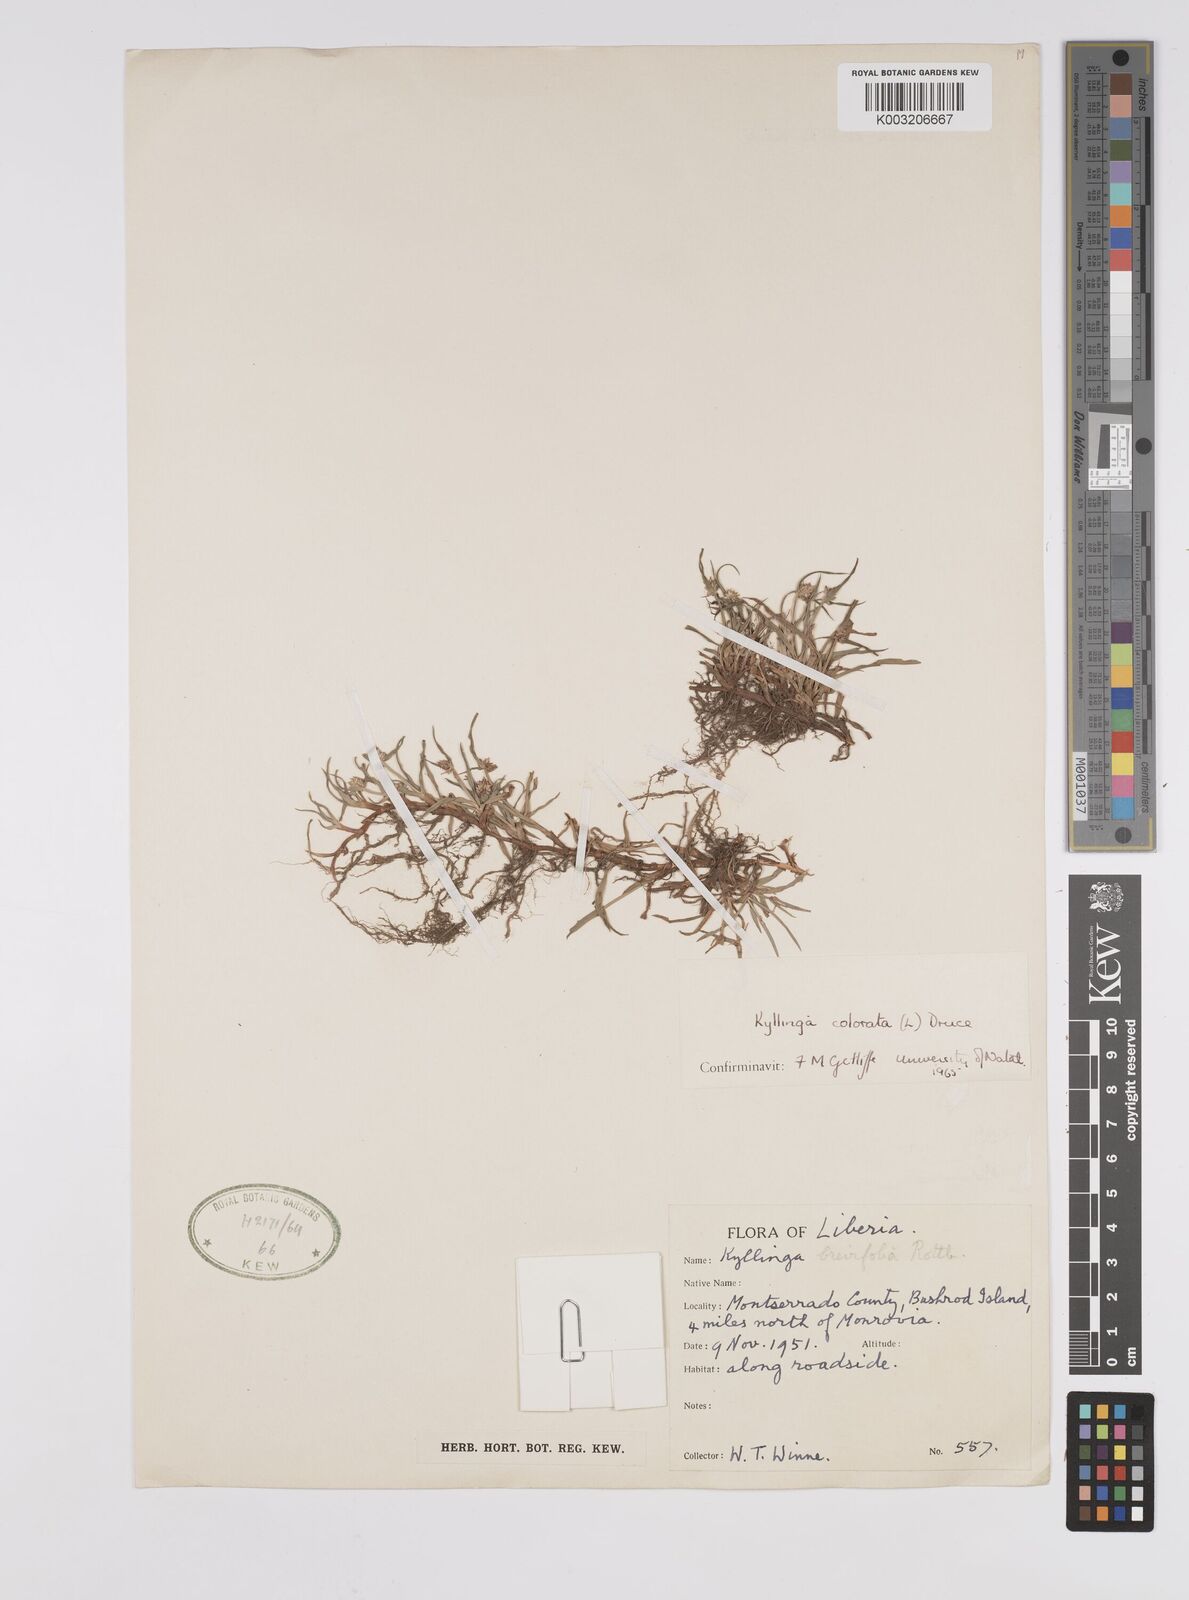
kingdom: Plantae
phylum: Tracheophyta
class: Liliopsida
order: Poales
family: Cyperaceae
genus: Cyperus
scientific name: Cyperus brevifolius
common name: Globe kyllinga
